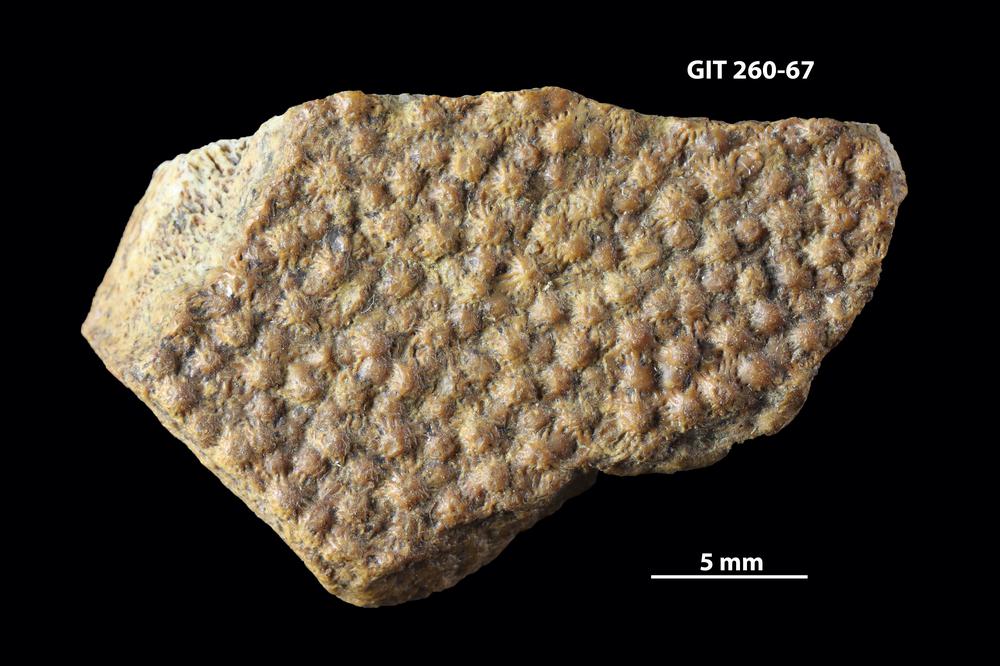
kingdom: Animalia
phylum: Chordata
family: Homostiidae
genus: Homostius
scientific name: Homostius
